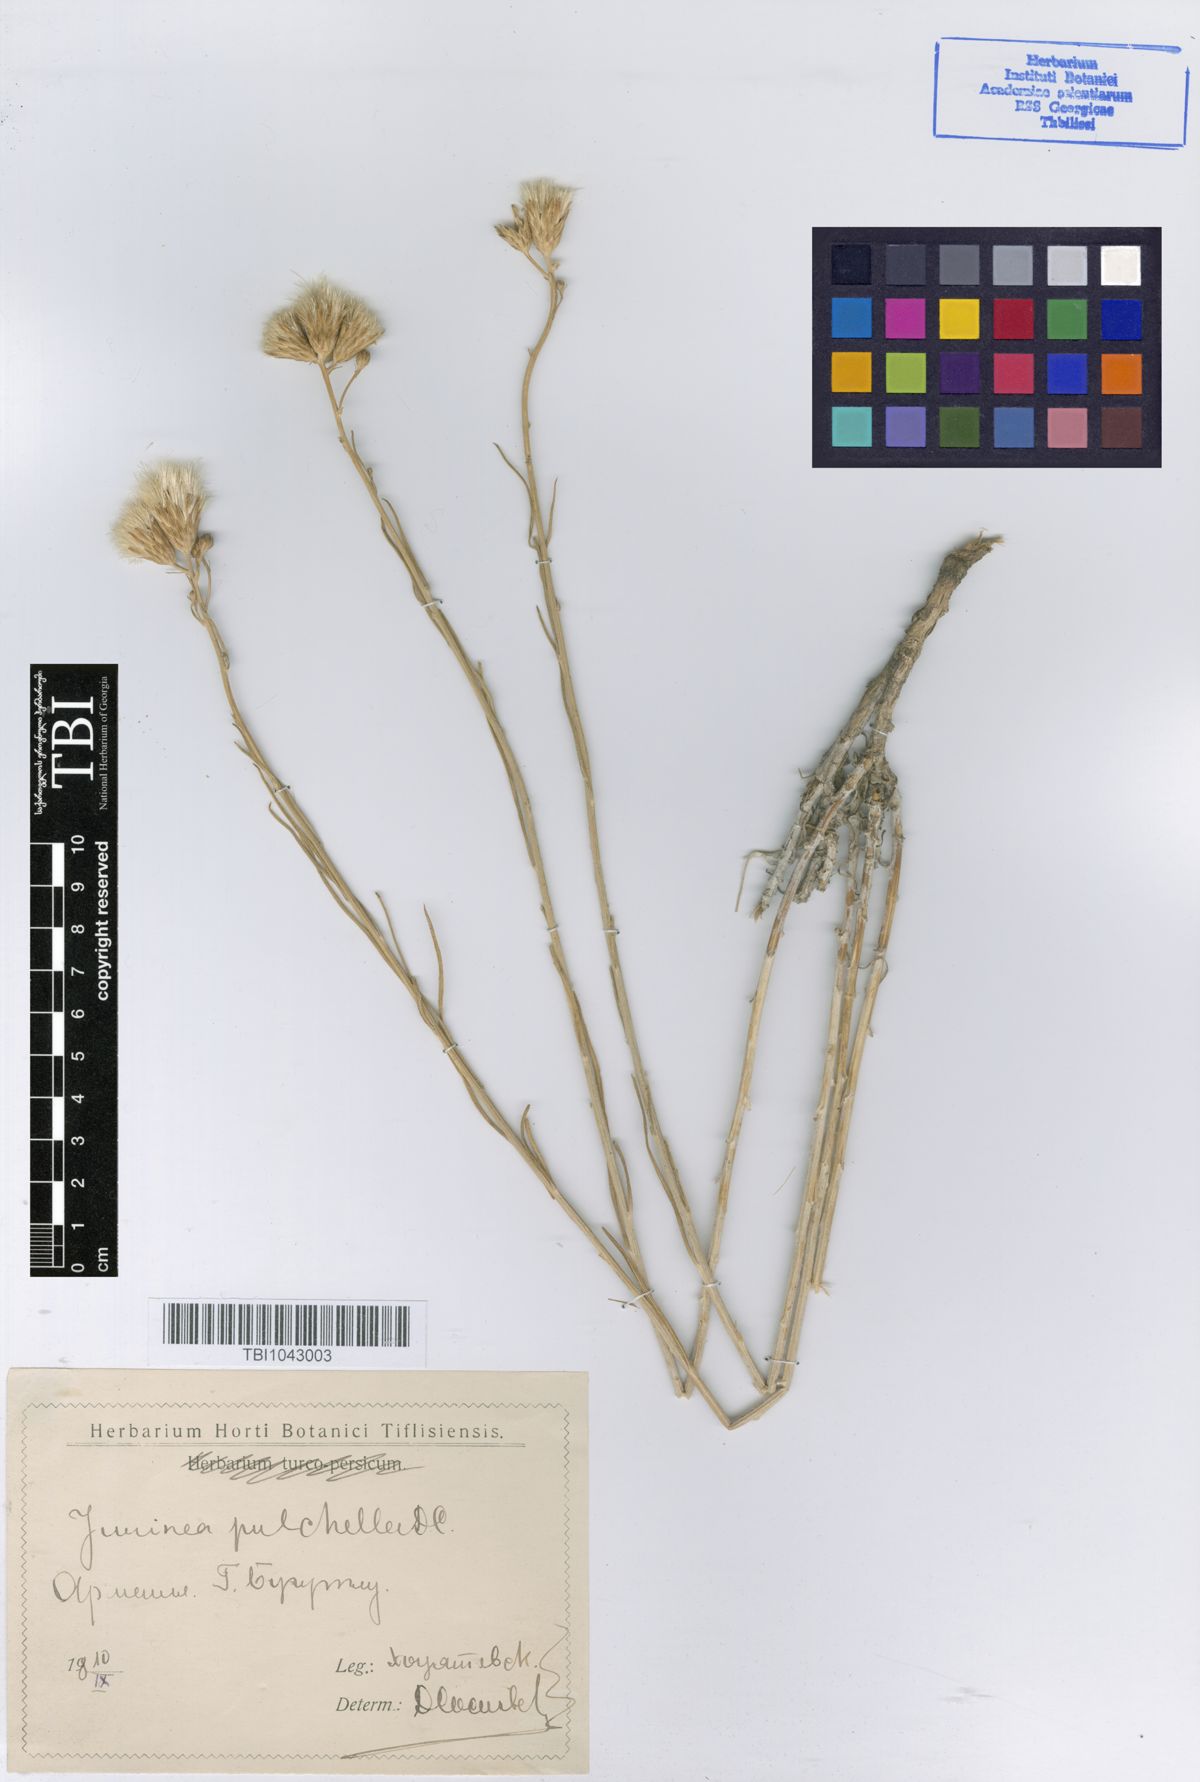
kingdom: Plantae
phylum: Tracheophyta
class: Magnoliopsida
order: Asterales
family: Asteraceae
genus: Jurinea
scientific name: Jurinea pulchella
